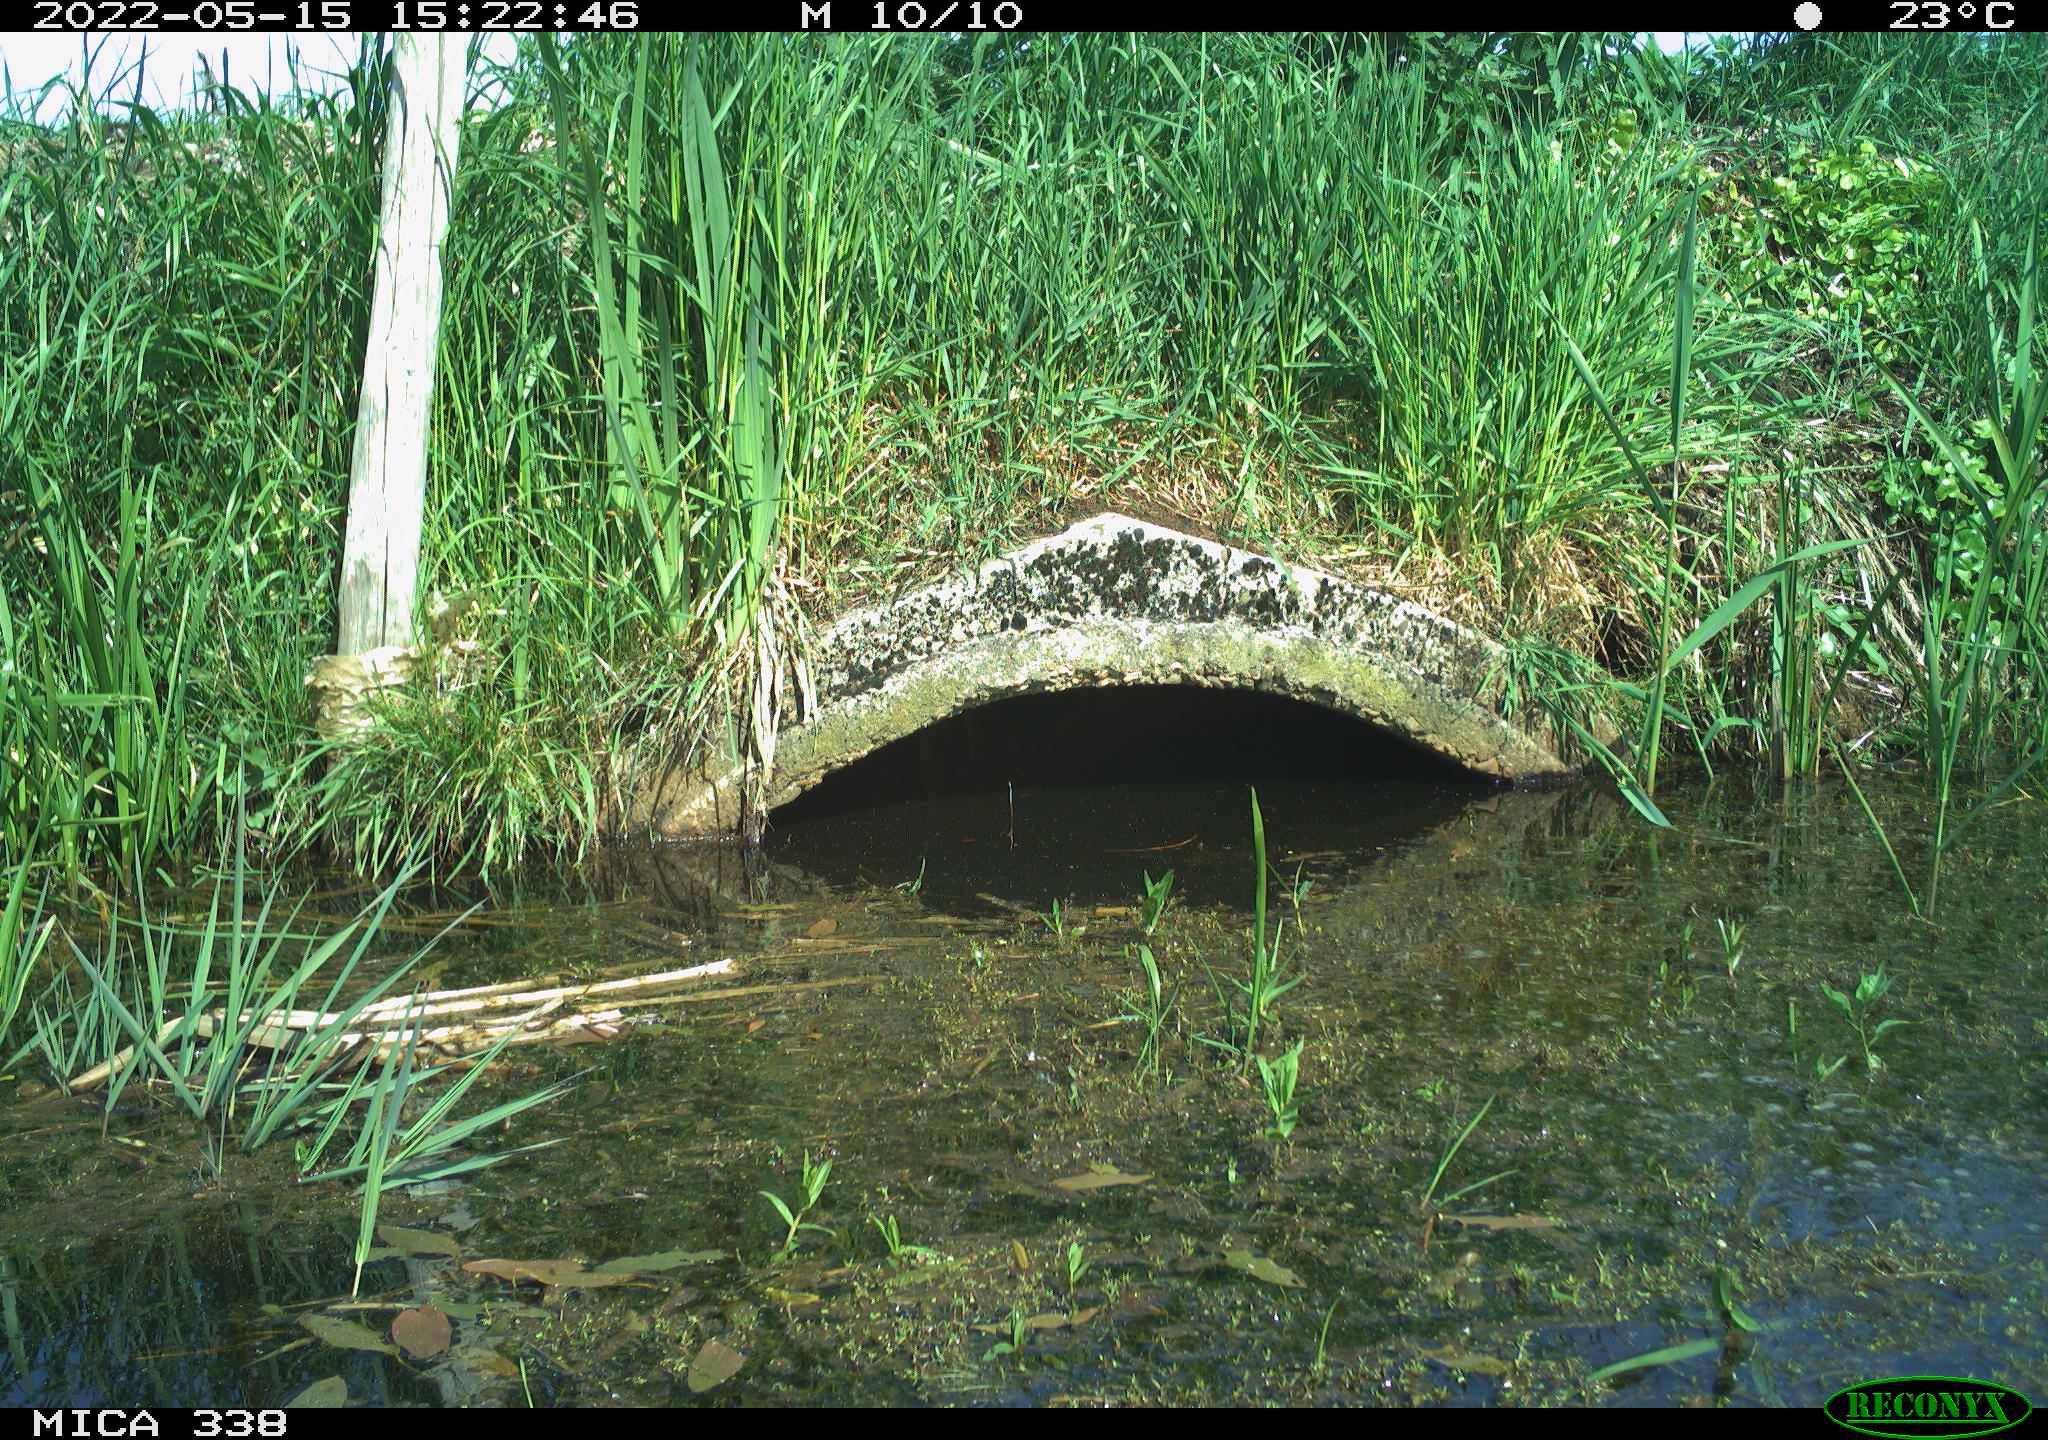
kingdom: Animalia
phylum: Chordata
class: Aves
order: Anseriformes
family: Anatidae
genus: Anas
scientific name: Anas platyrhynchos
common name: Mallard
